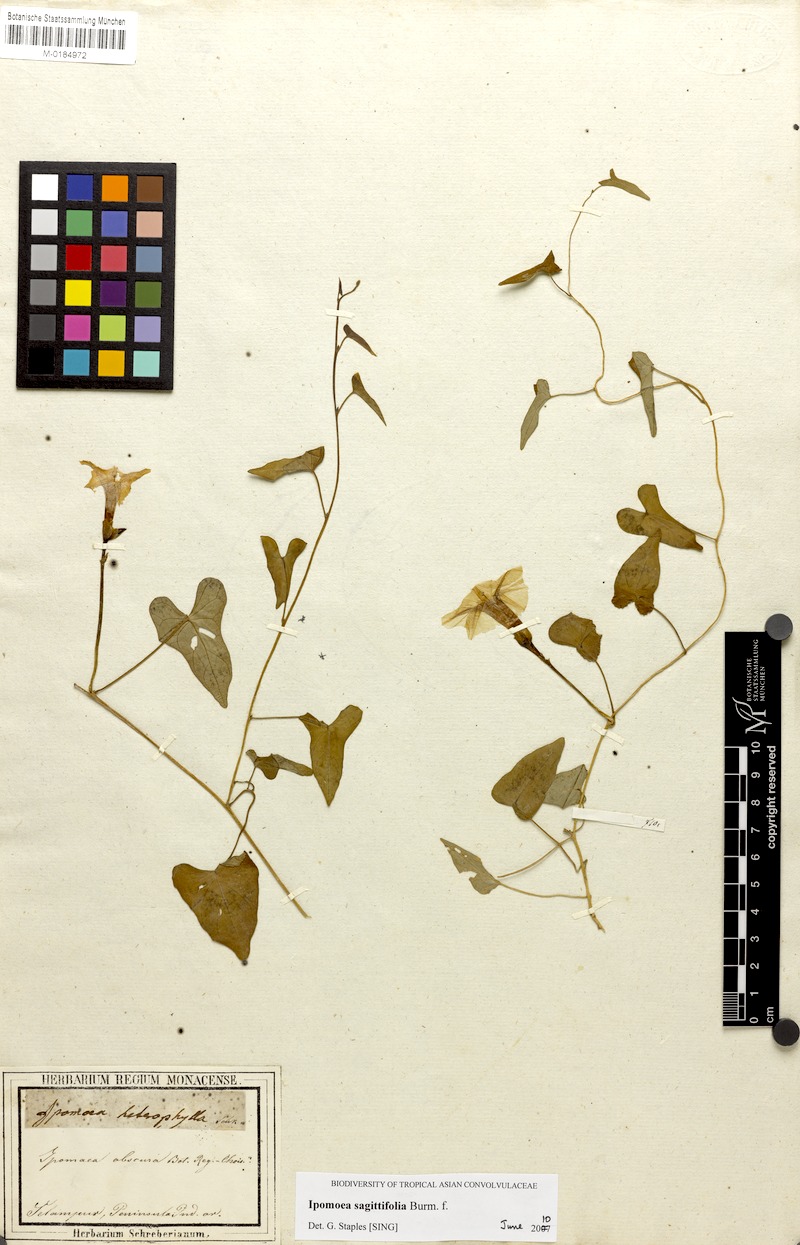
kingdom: Plantae
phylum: Tracheophyta
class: Magnoliopsida
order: Solanales
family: Convolvulaceae
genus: Ipomoea
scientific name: Ipomoea sagittifolia
